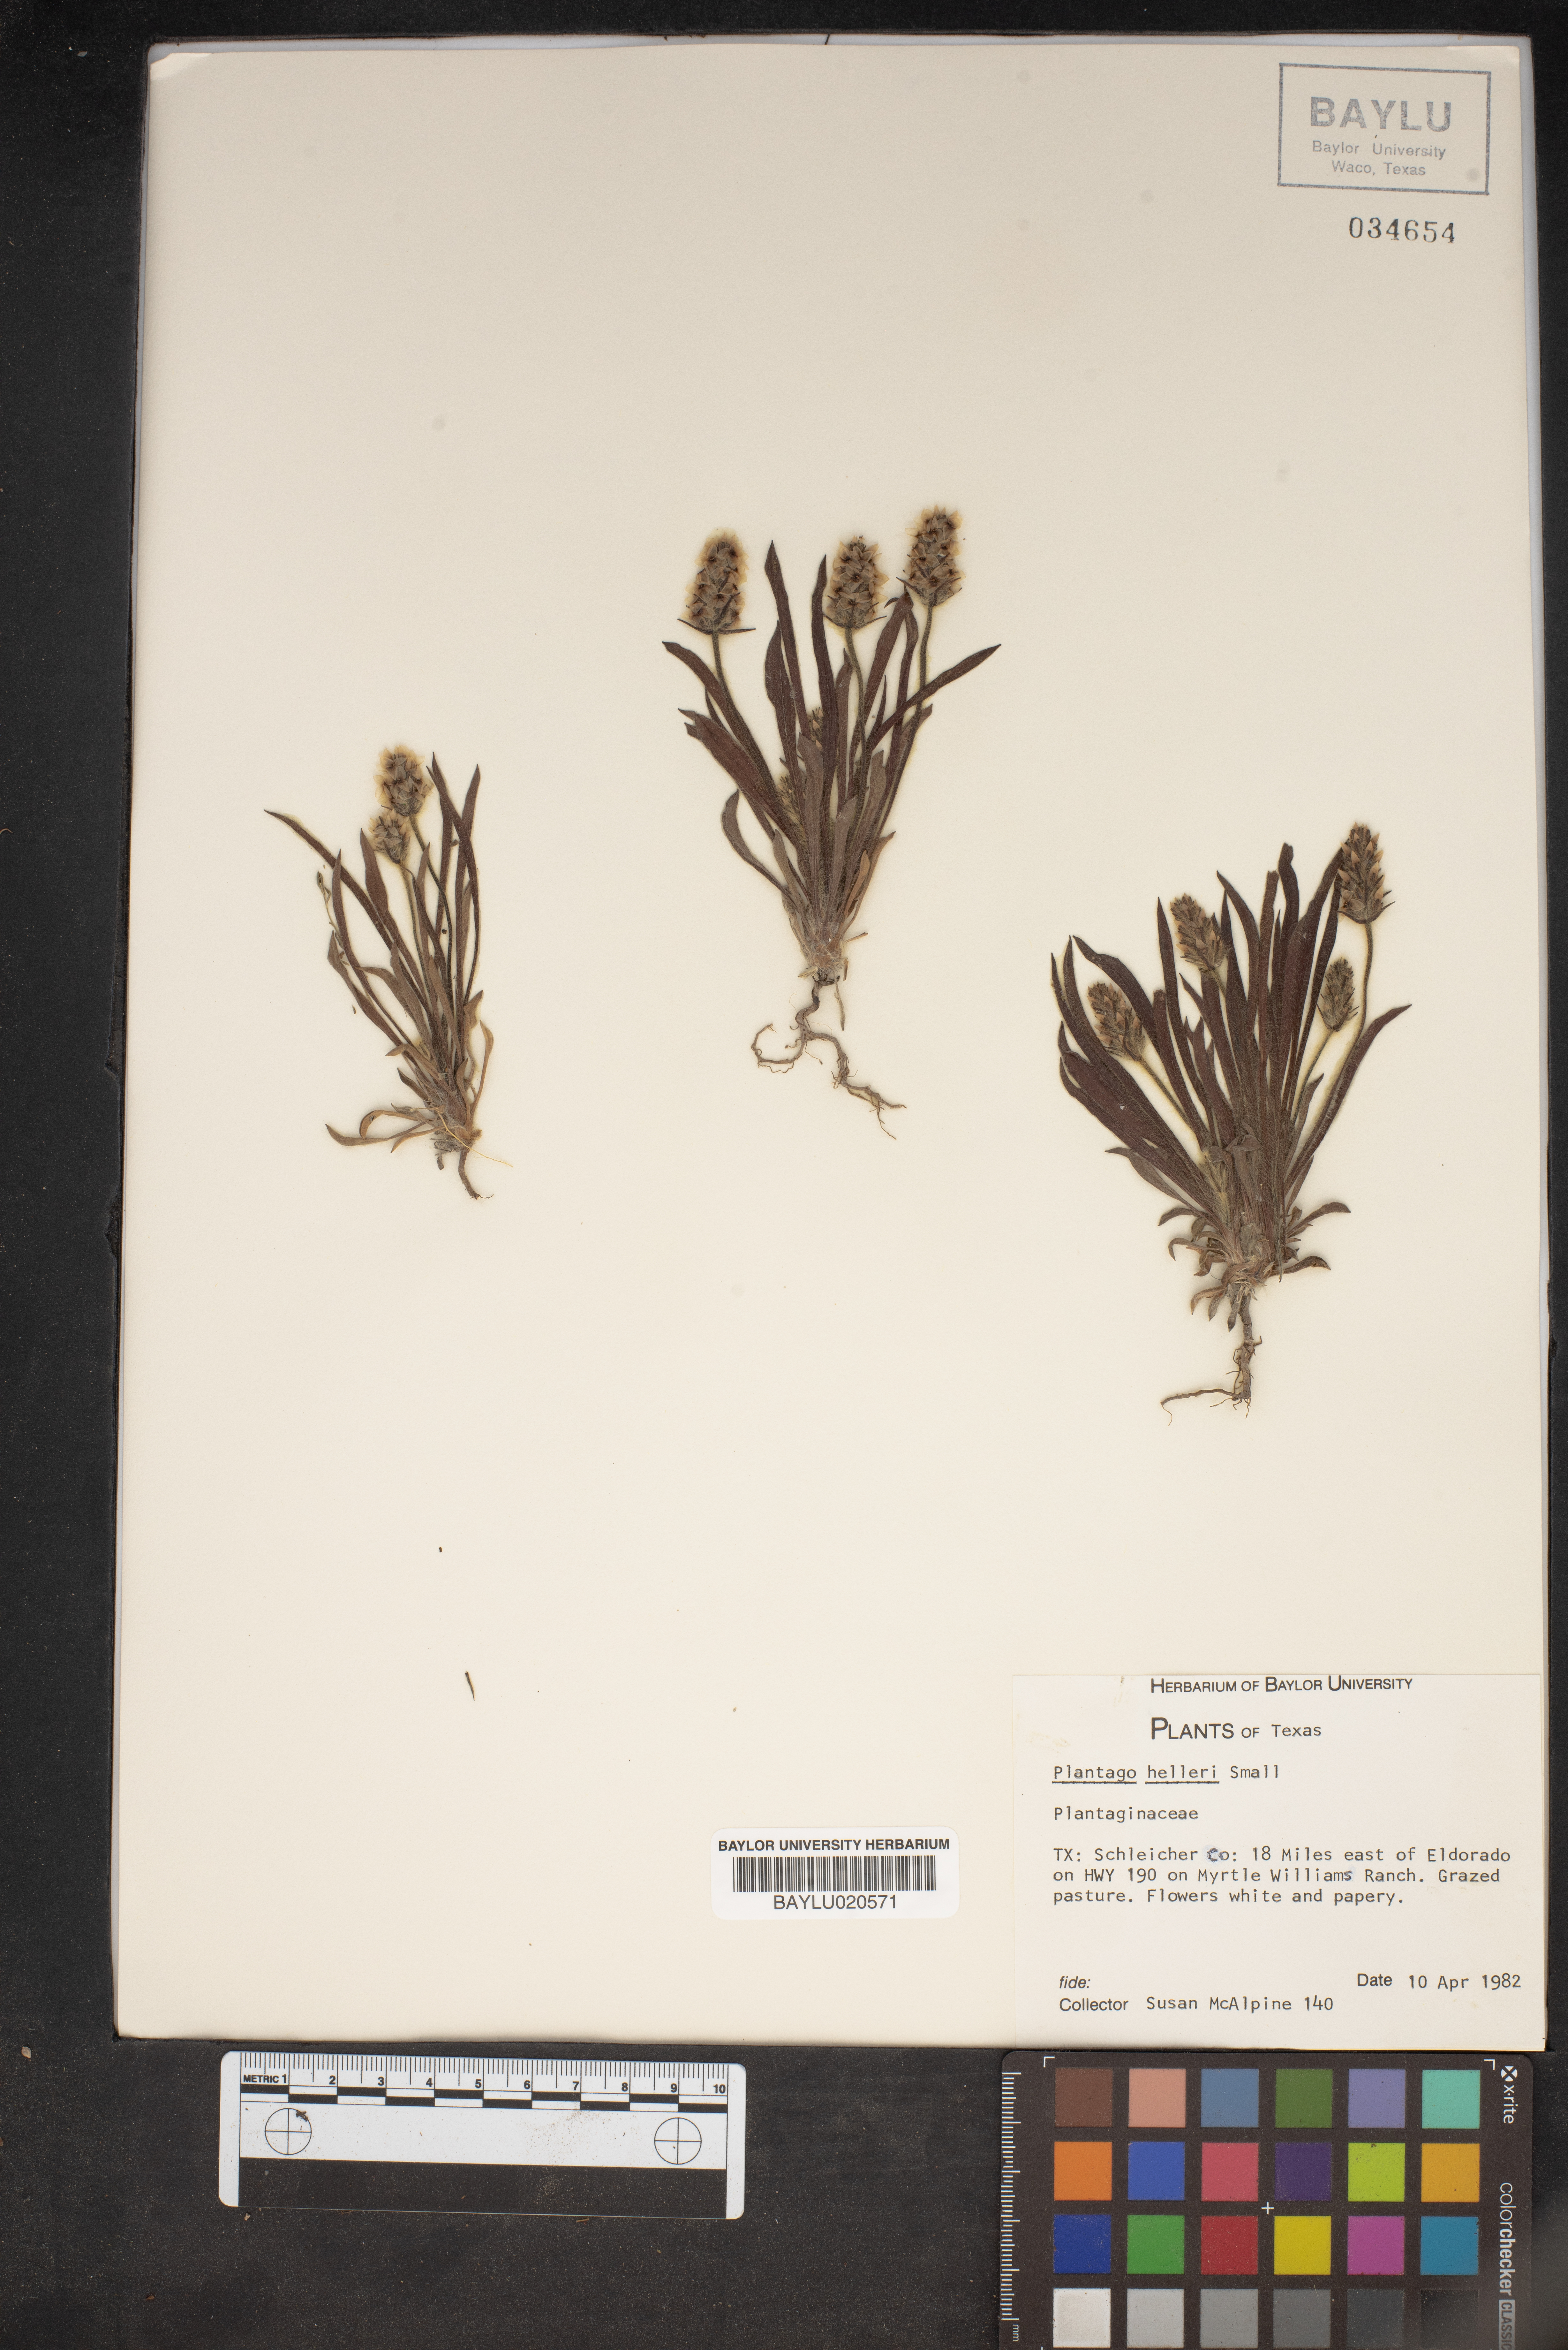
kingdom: Plantae
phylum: Tracheophyta
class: Magnoliopsida
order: Lamiales
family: Plantaginaceae
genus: Plantago
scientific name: Plantago helleri
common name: Heller's plantain
